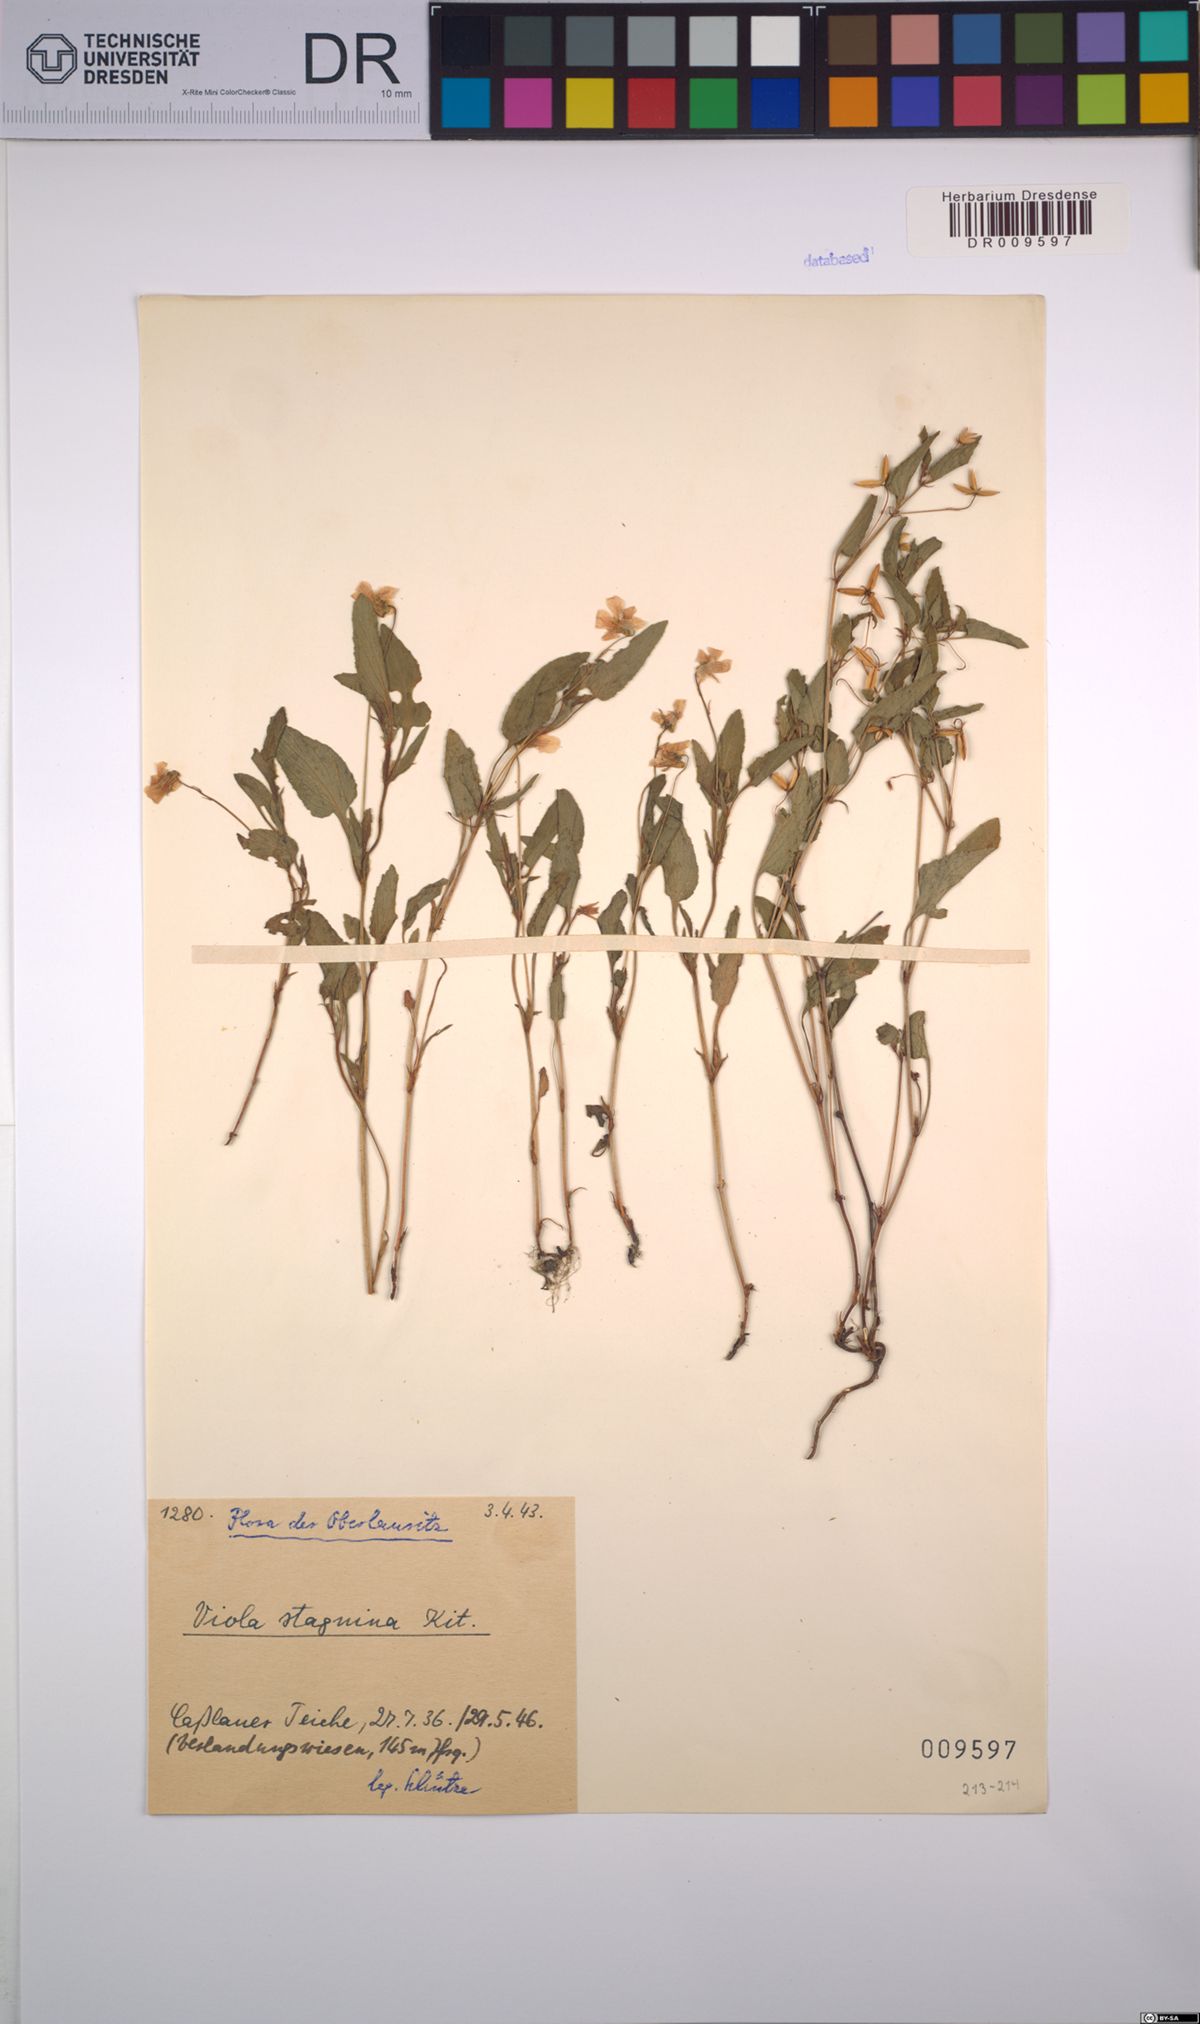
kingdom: Plantae
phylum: Tracheophyta
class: Magnoliopsida
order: Malpighiales
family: Violaceae
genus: Viola
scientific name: Viola stagnina
